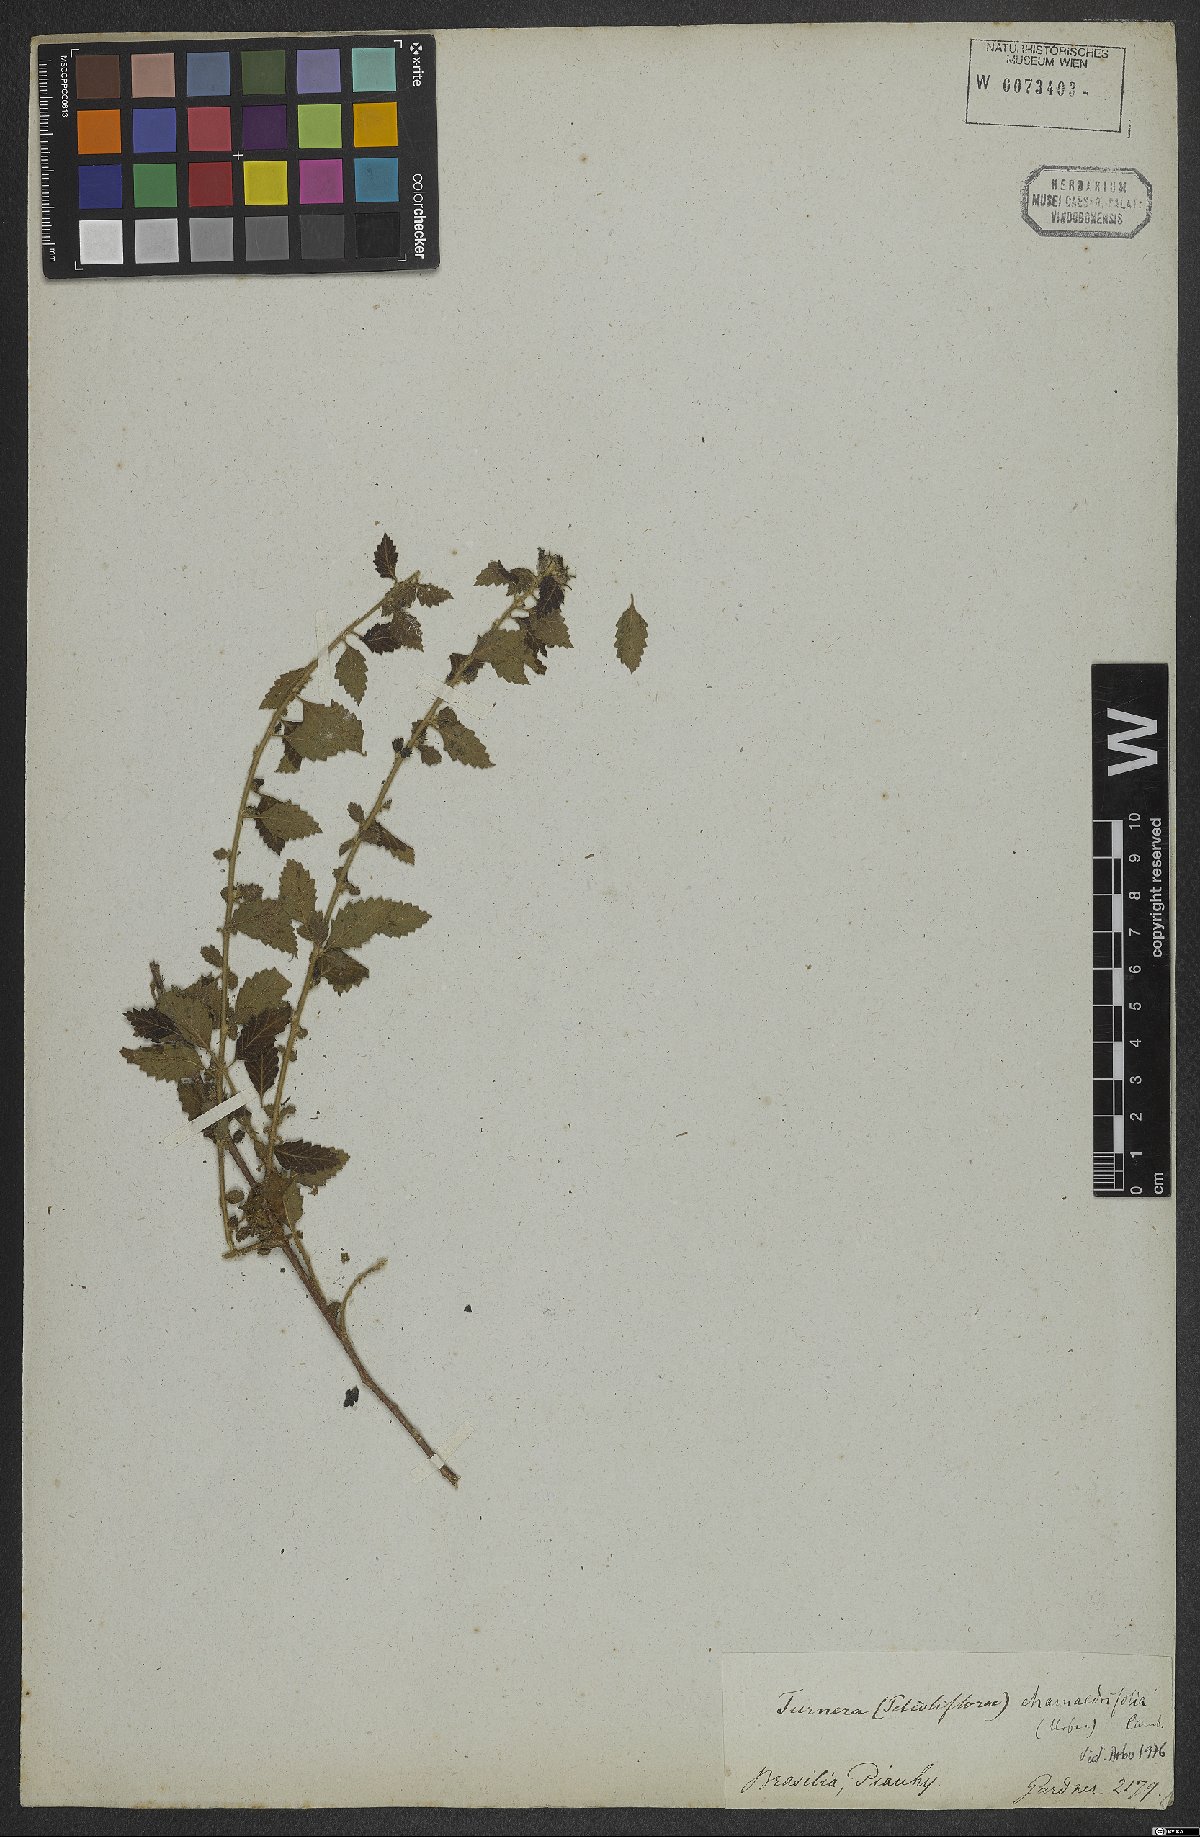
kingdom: Plantae
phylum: Tracheophyta
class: Magnoliopsida
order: Malpighiales
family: Turneraceae
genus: Turnera
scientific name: Turnera chamaedrifolia
